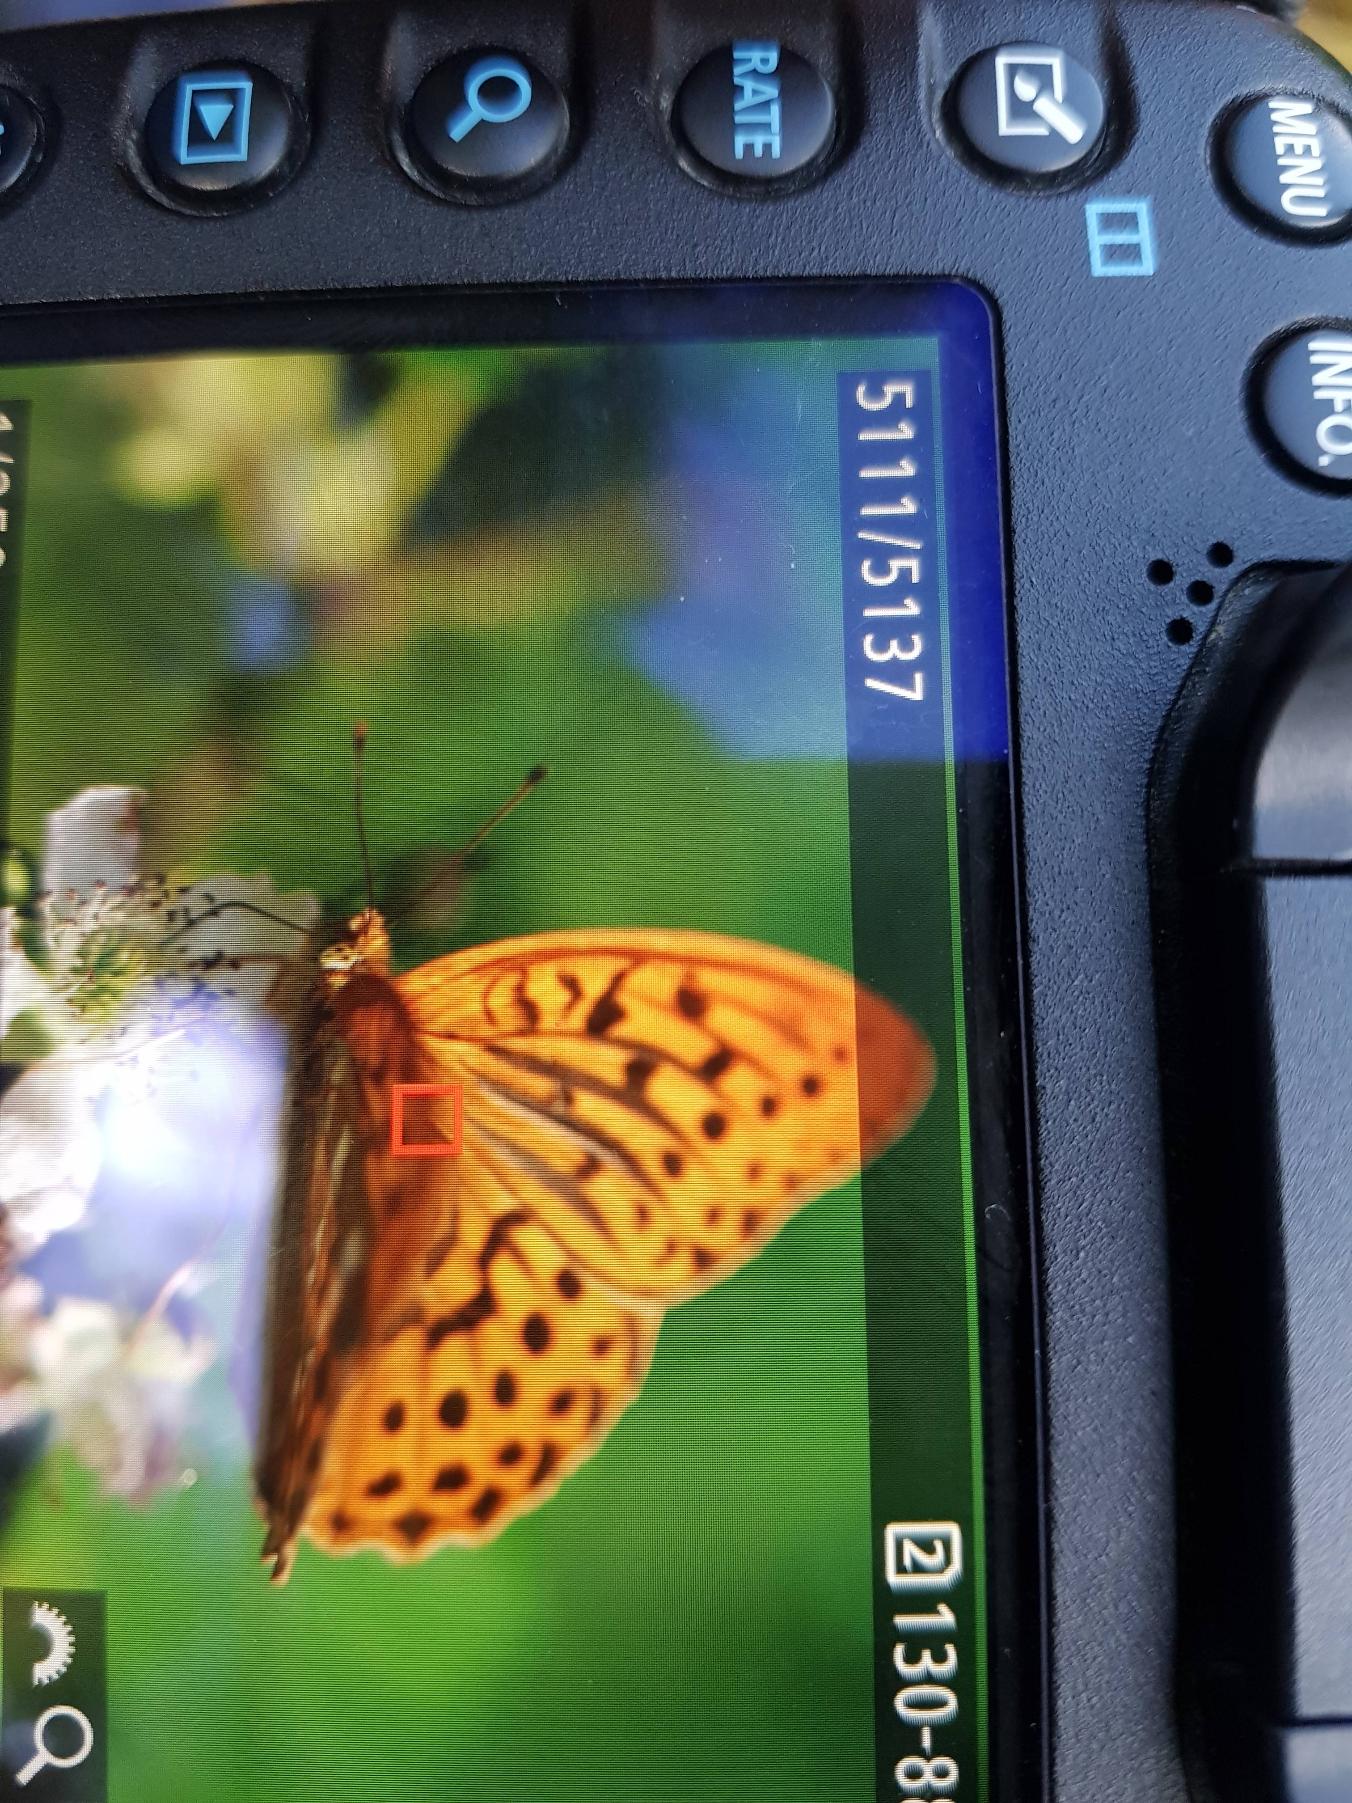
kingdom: Animalia
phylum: Arthropoda
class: Insecta
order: Lepidoptera
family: Nymphalidae
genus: Argynnis
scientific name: Argynnis paphia
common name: Kejserkåbe
